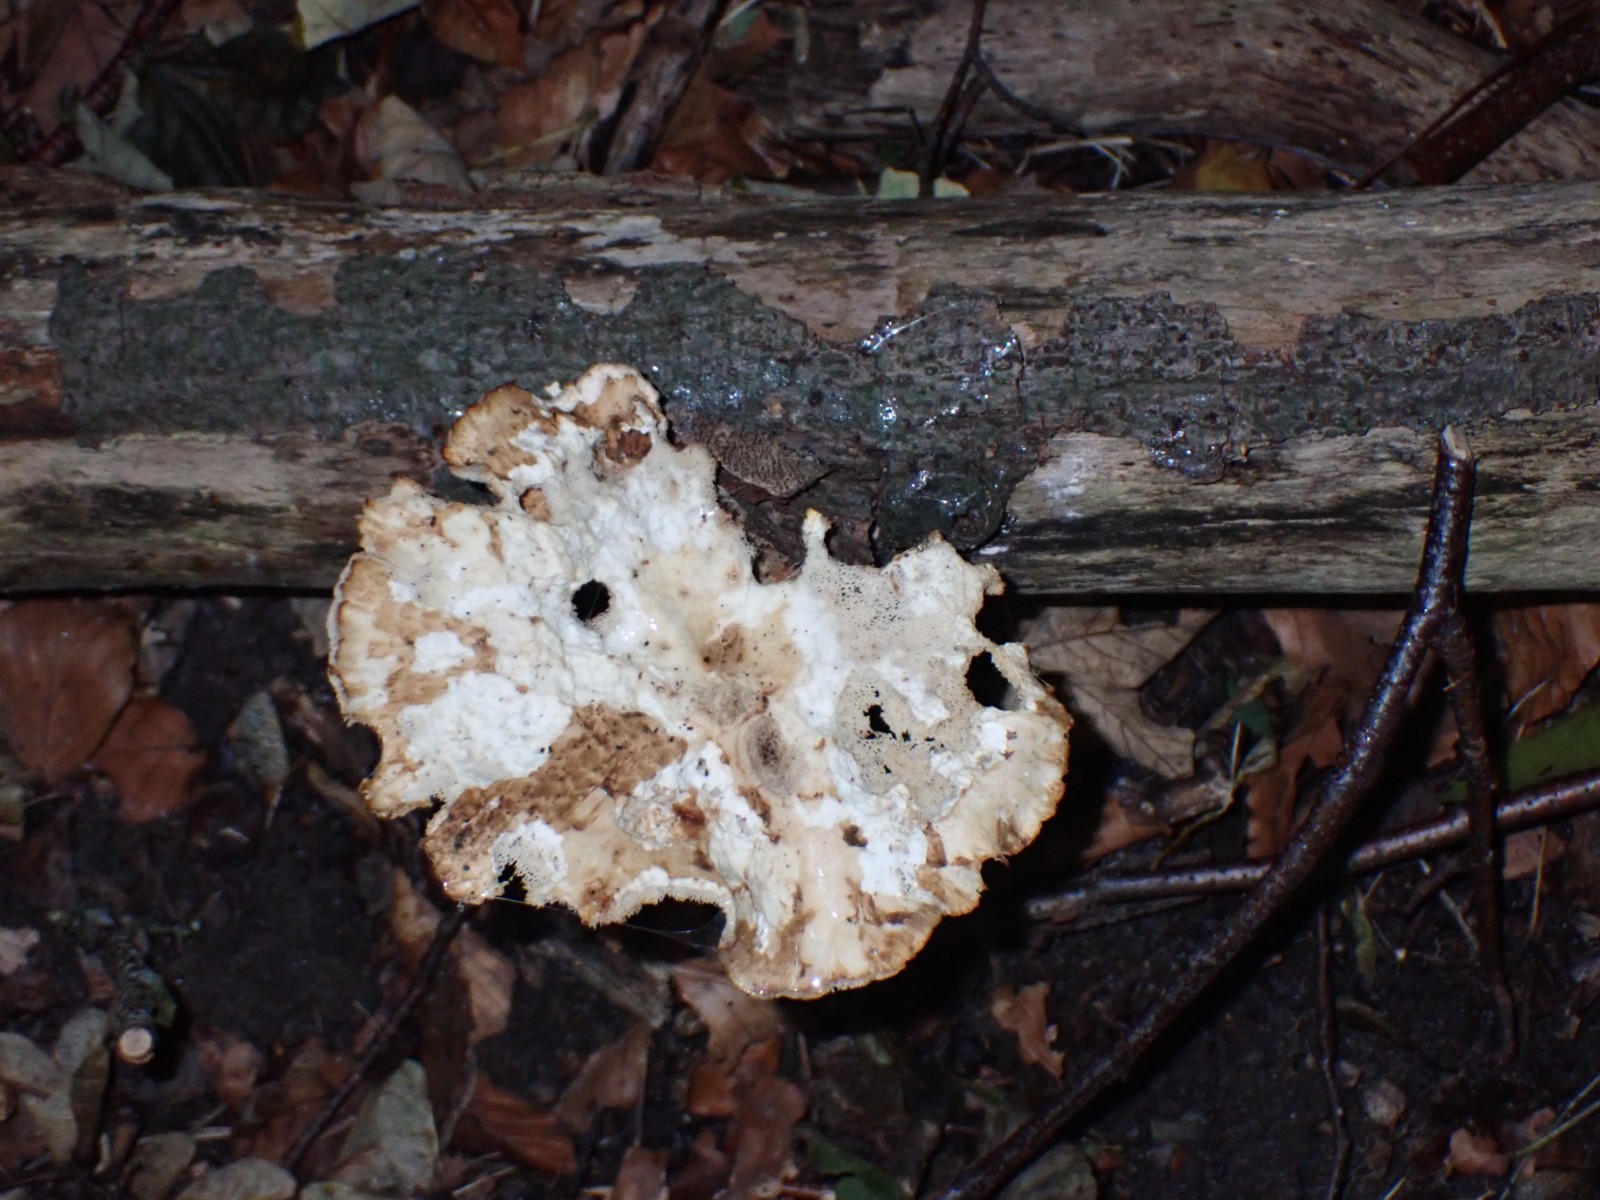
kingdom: Fungi
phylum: Basidiomycota
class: Agaricomycetes
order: Polyporales
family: Polyporaceae
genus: Cerioporus
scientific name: Cerioporus varius
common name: foranderlig stilkporesvamp
